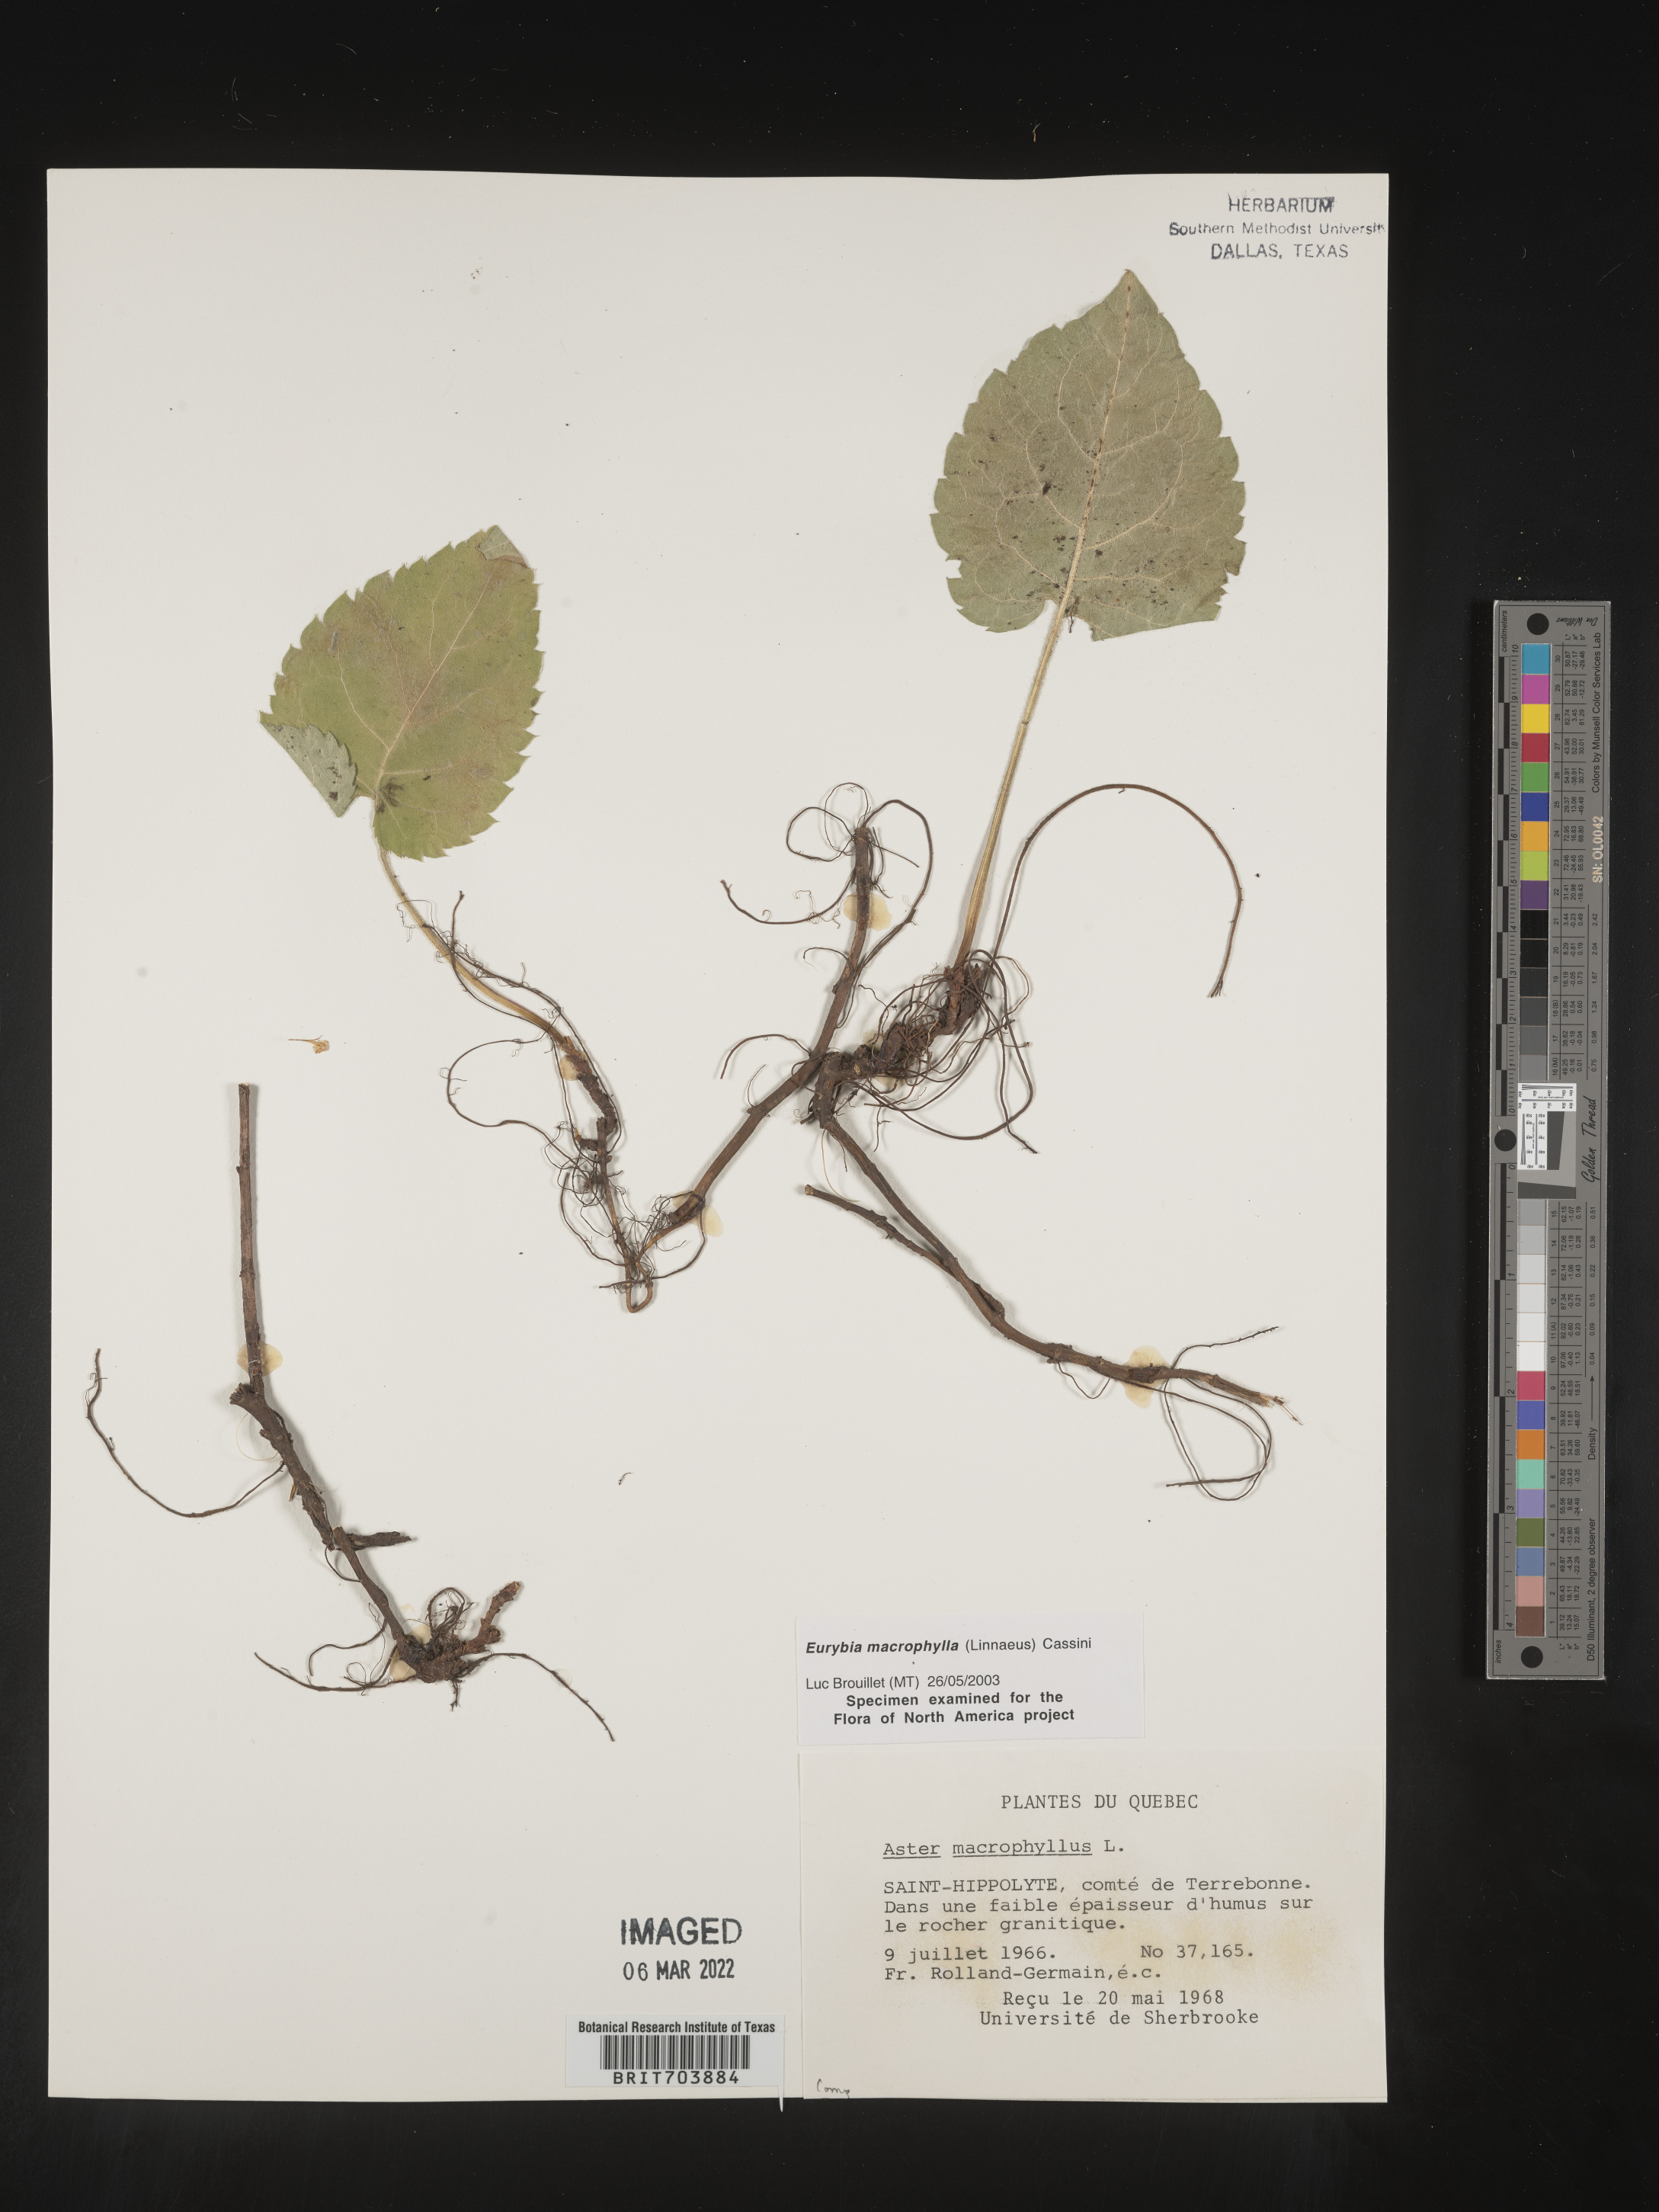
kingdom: Plantae
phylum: Tracheophyta
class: Magnoliopsida
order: Asterales
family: Asteraceae
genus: Eurybia
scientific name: Eurybia macrophylla
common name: Big-leaved aster
